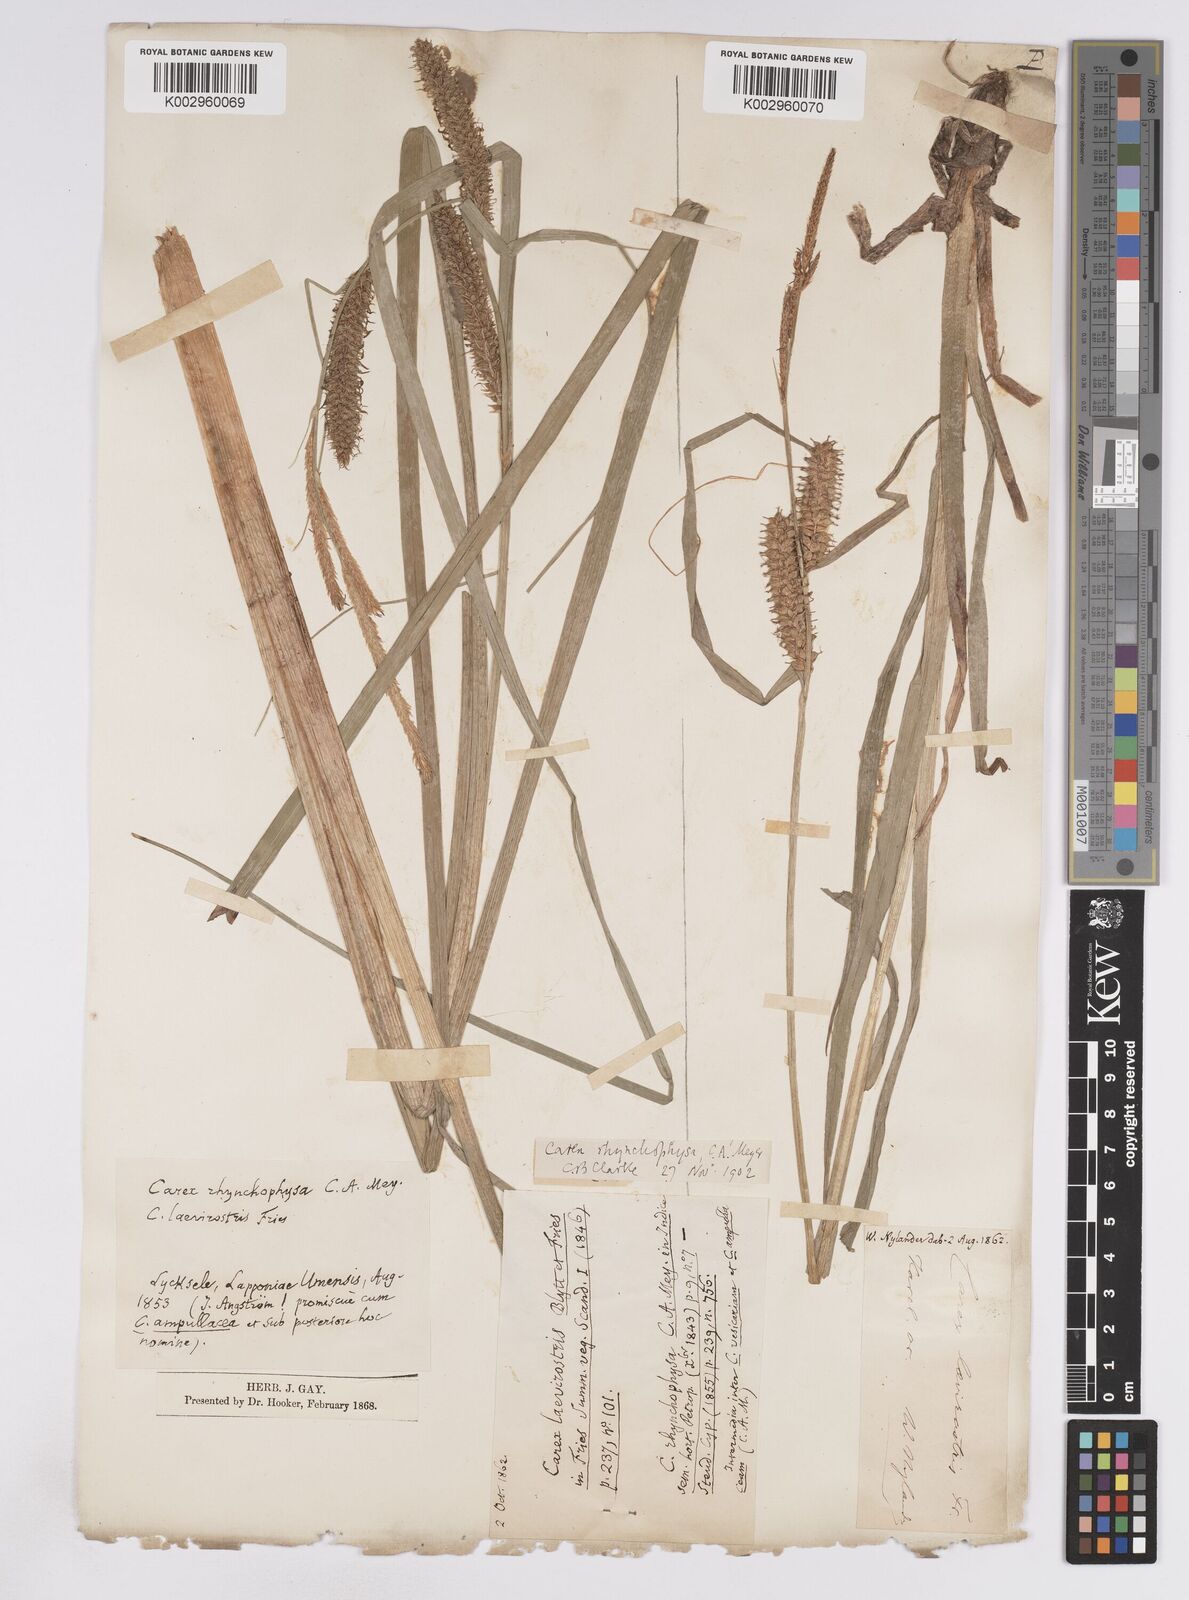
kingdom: Plantae
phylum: Tracheophyta
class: Liliopsida
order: Poales
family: Cyperaceae
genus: Carex
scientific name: Carex utriculata
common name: Beaked sedge
